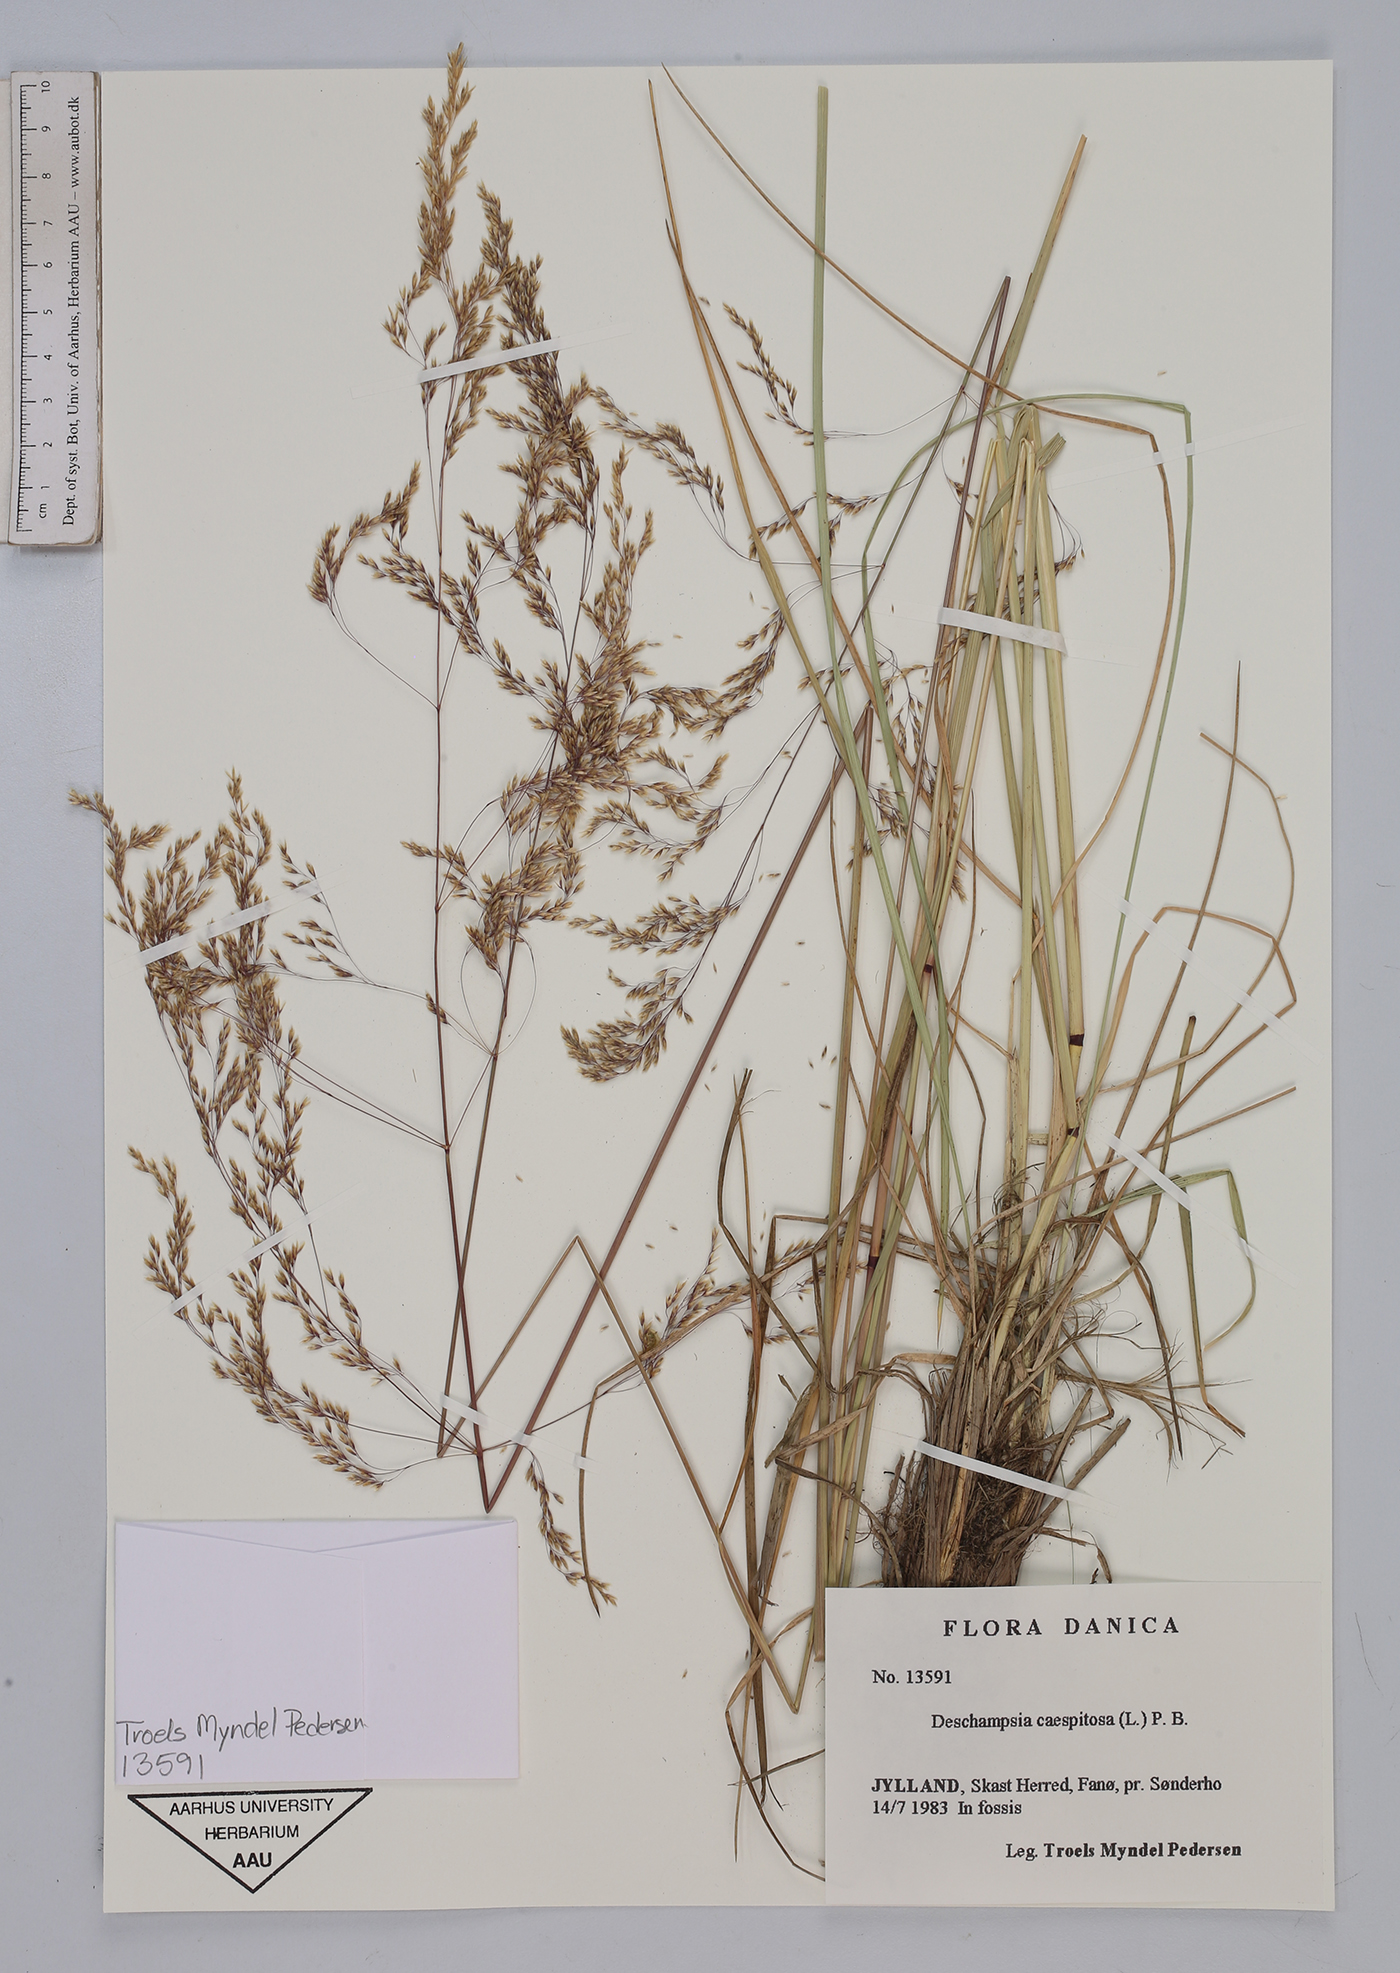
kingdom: Plantae
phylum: Tracheophyta
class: Liliopsida
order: Poales
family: Poaceae
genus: Deschampsia
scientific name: Deschampsia cespitosa
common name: Tufted hair-grass
